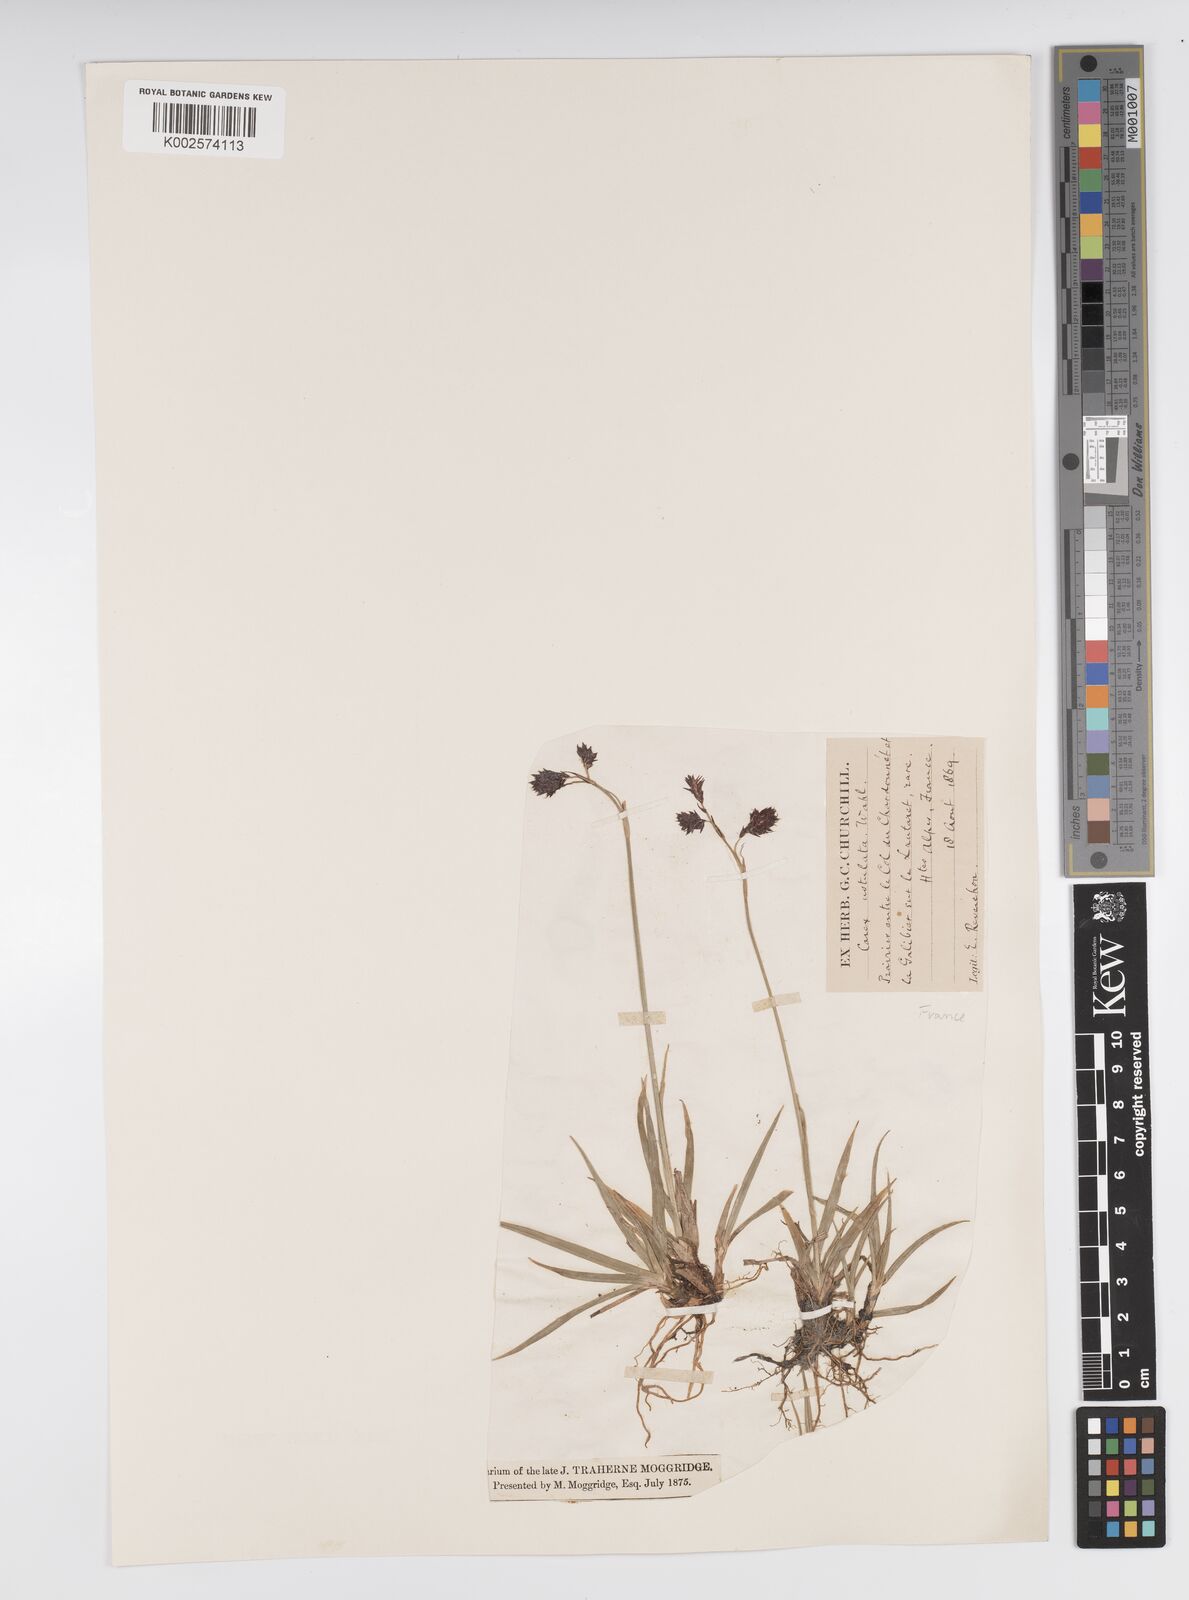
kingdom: Plantae
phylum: Tracheophyta
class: Liliopsida
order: Poales
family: Cyperaceae
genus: Carex
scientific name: Carex atrofusca
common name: Scorched alpine-sedge
